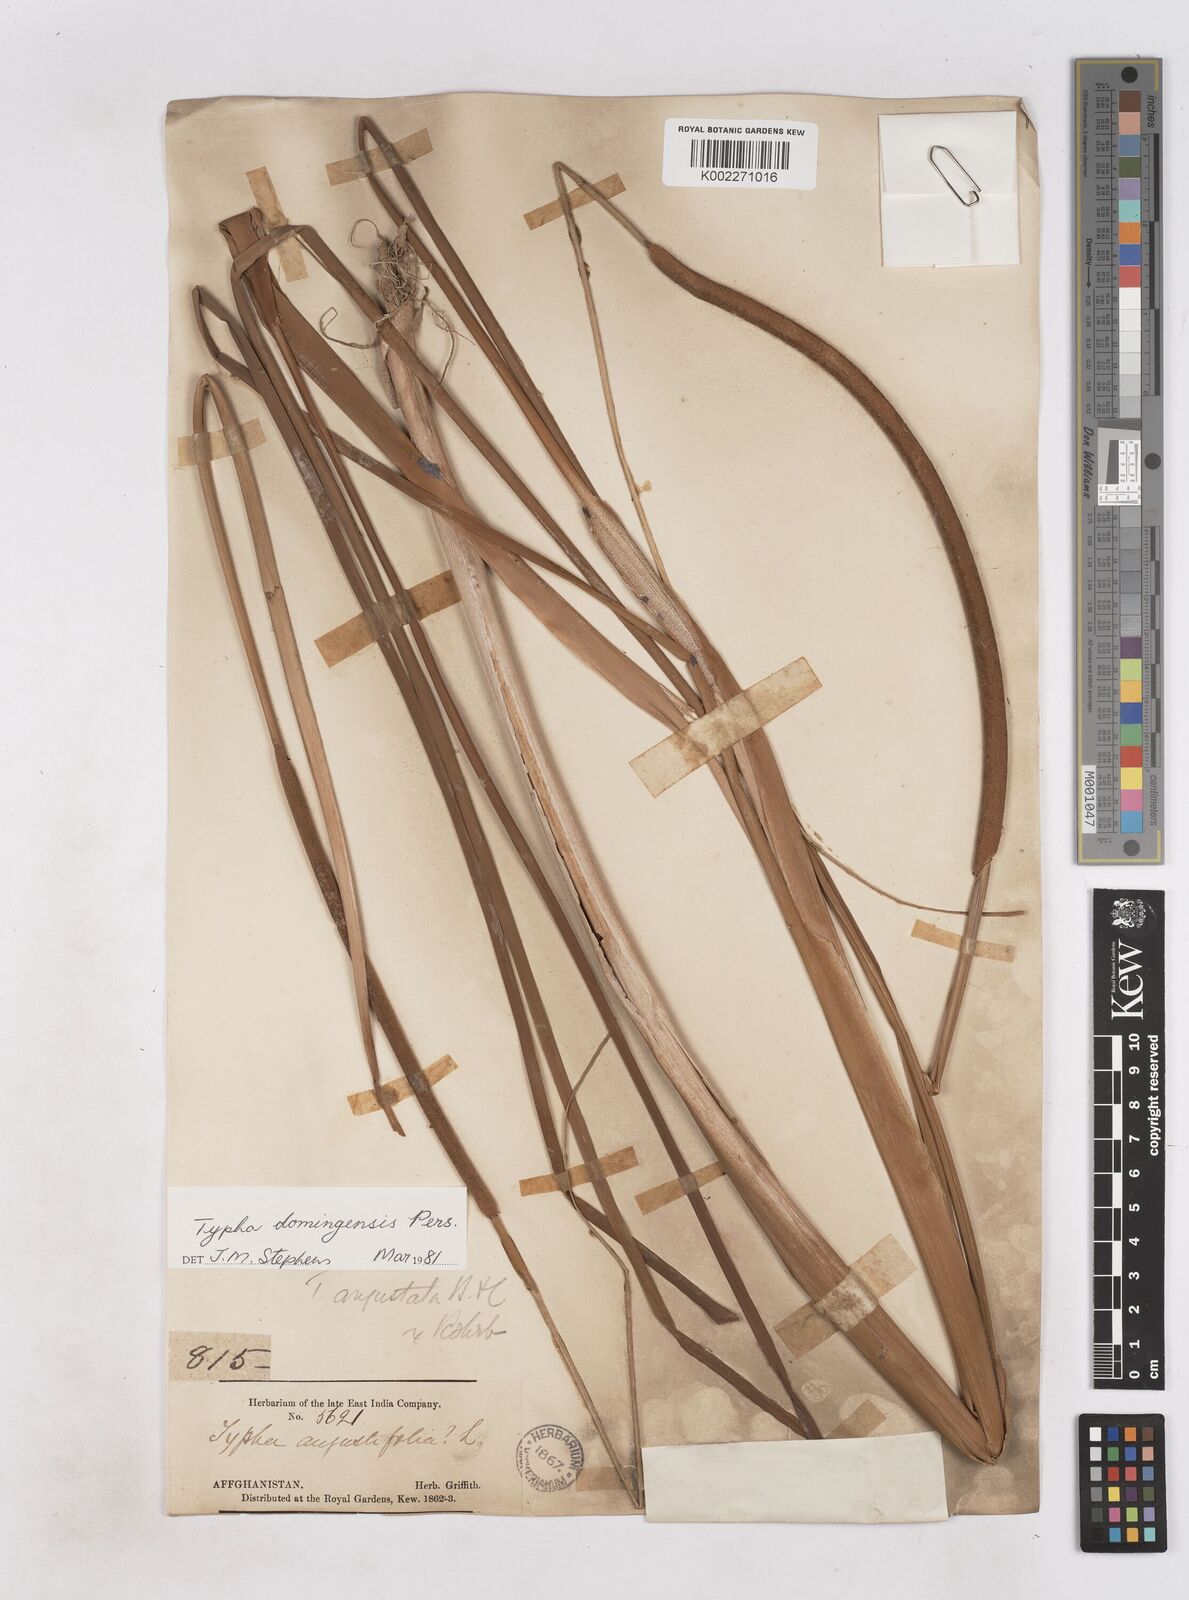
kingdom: Plantae
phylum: Tracheophyta
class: Liliopsida
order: Poales
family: Typhaceae
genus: Typha
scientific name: Typha domingensis
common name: Southern cattail
